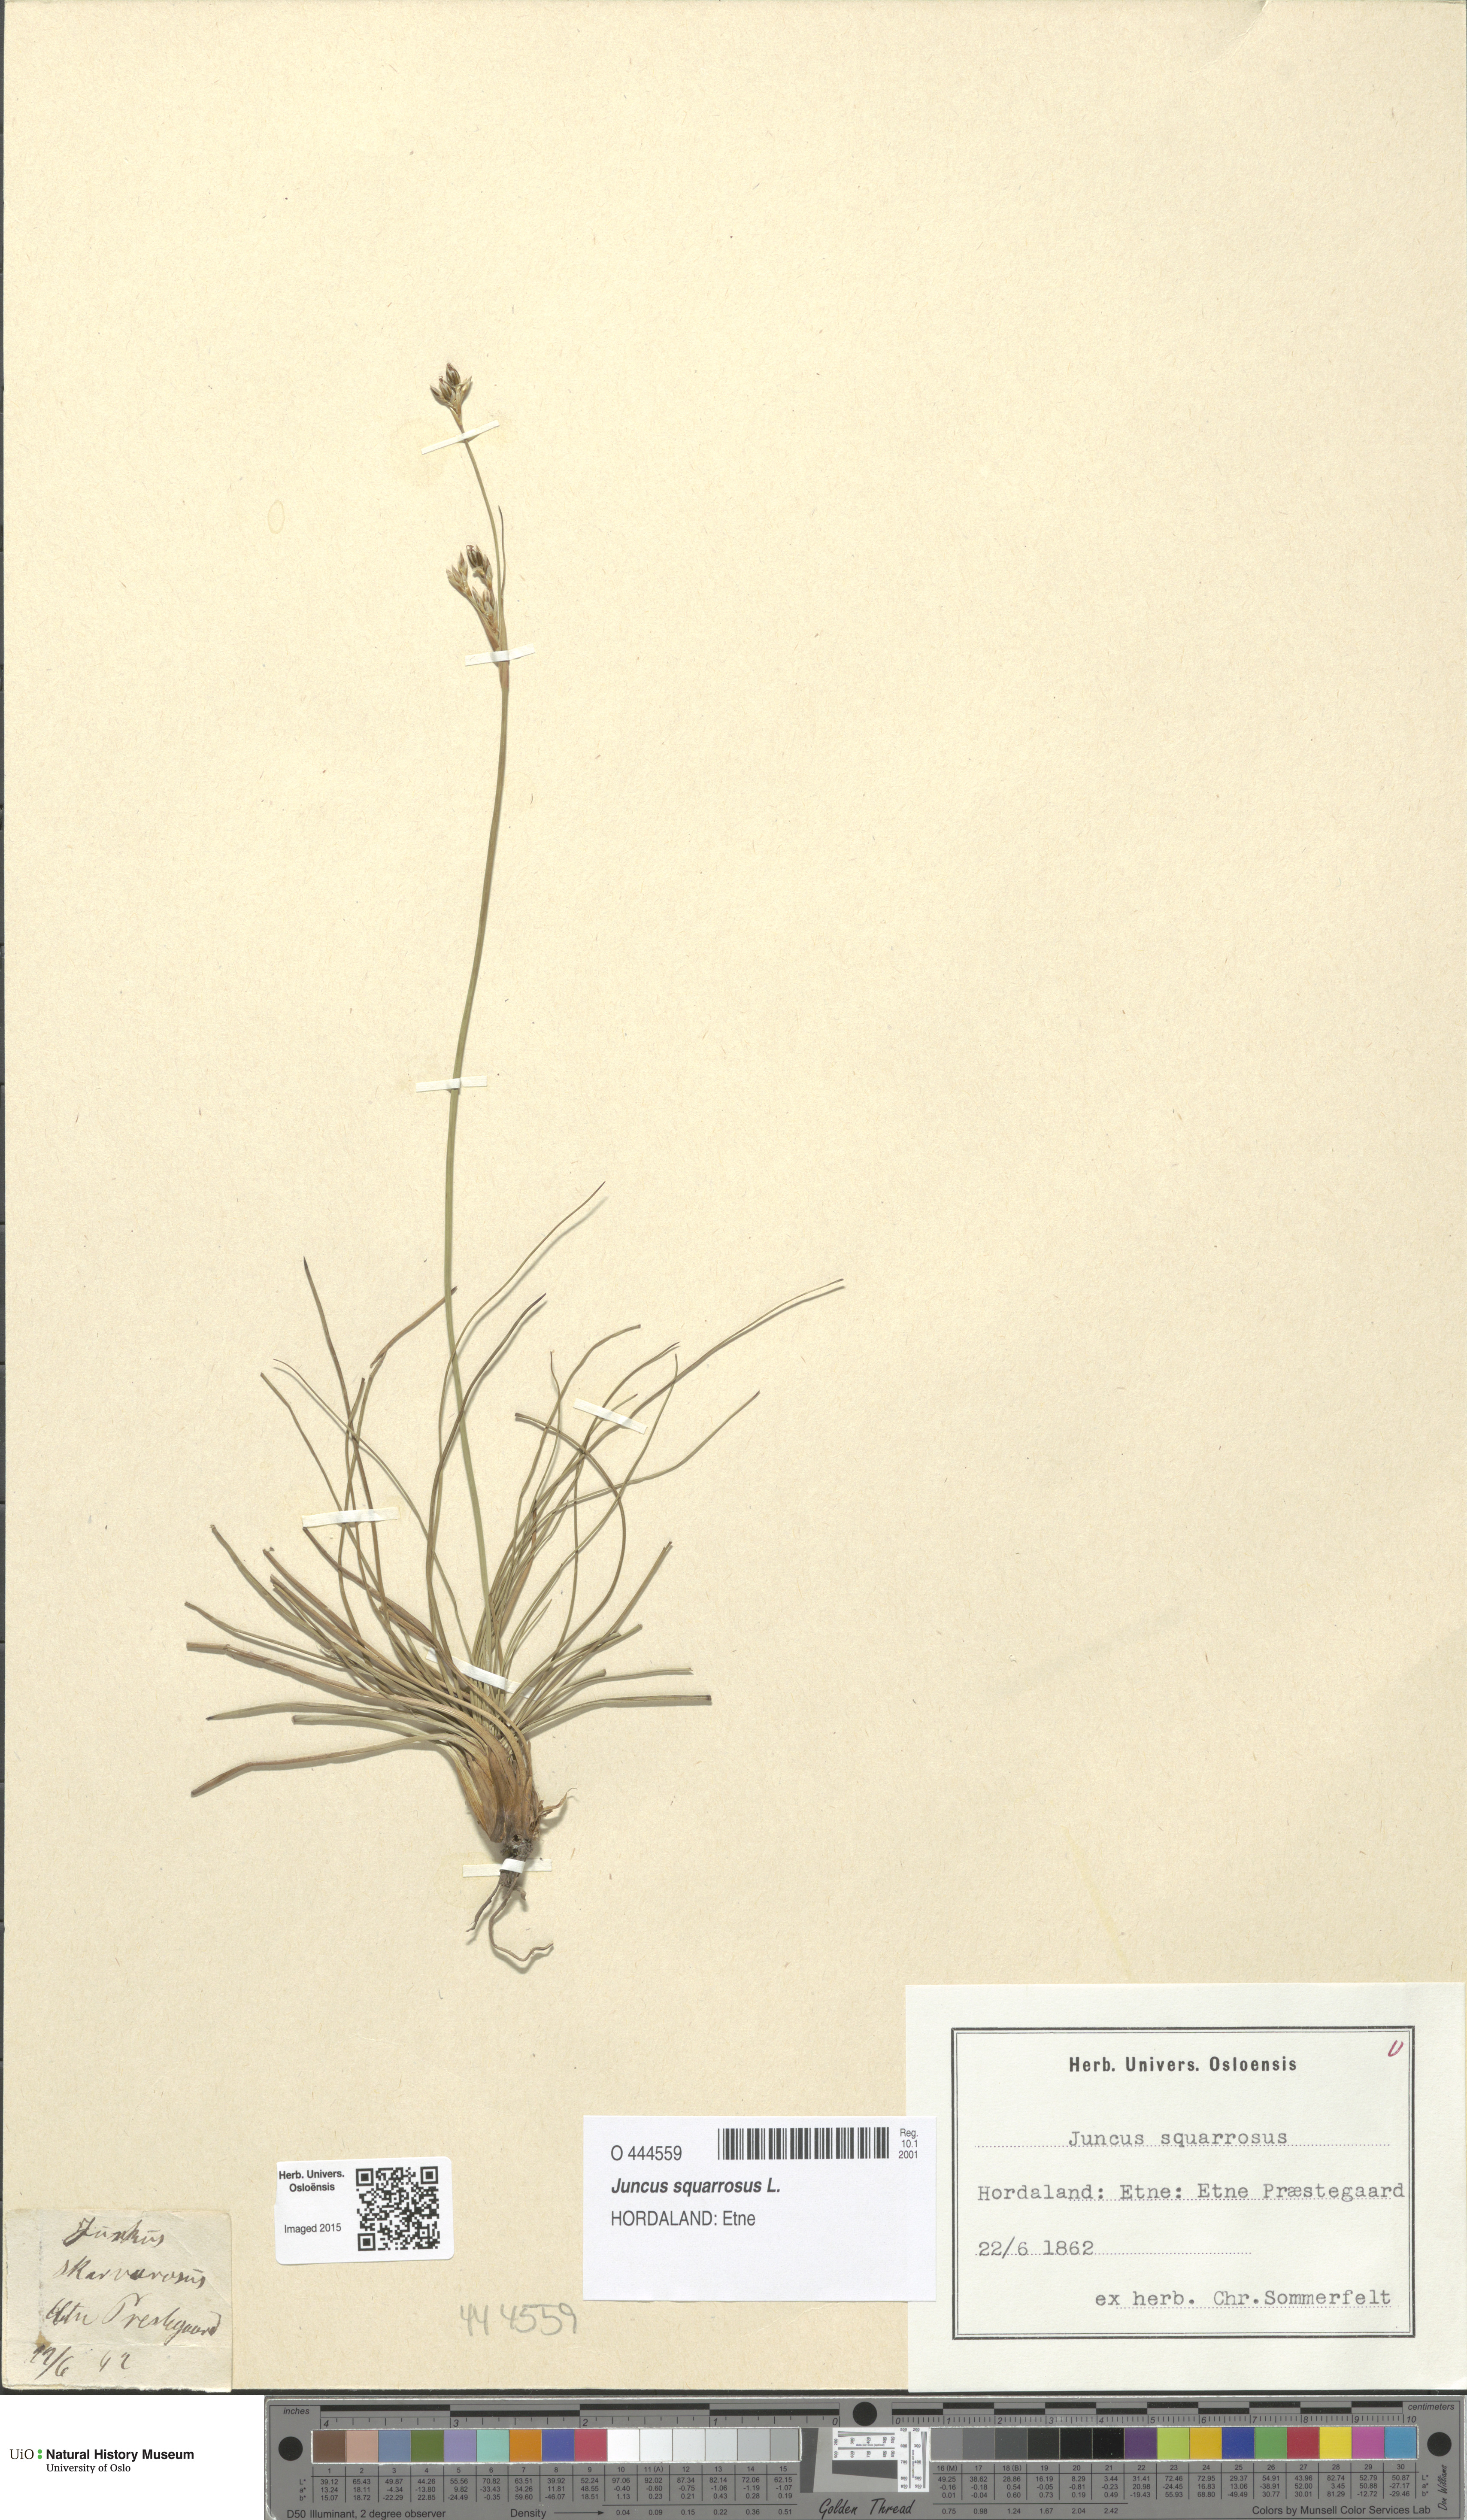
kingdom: Plantae
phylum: Tracheophyta
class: Liliopsida
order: Poales
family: Juncaceae
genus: Juncus
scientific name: Juncus squarrosus
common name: Heath rush
